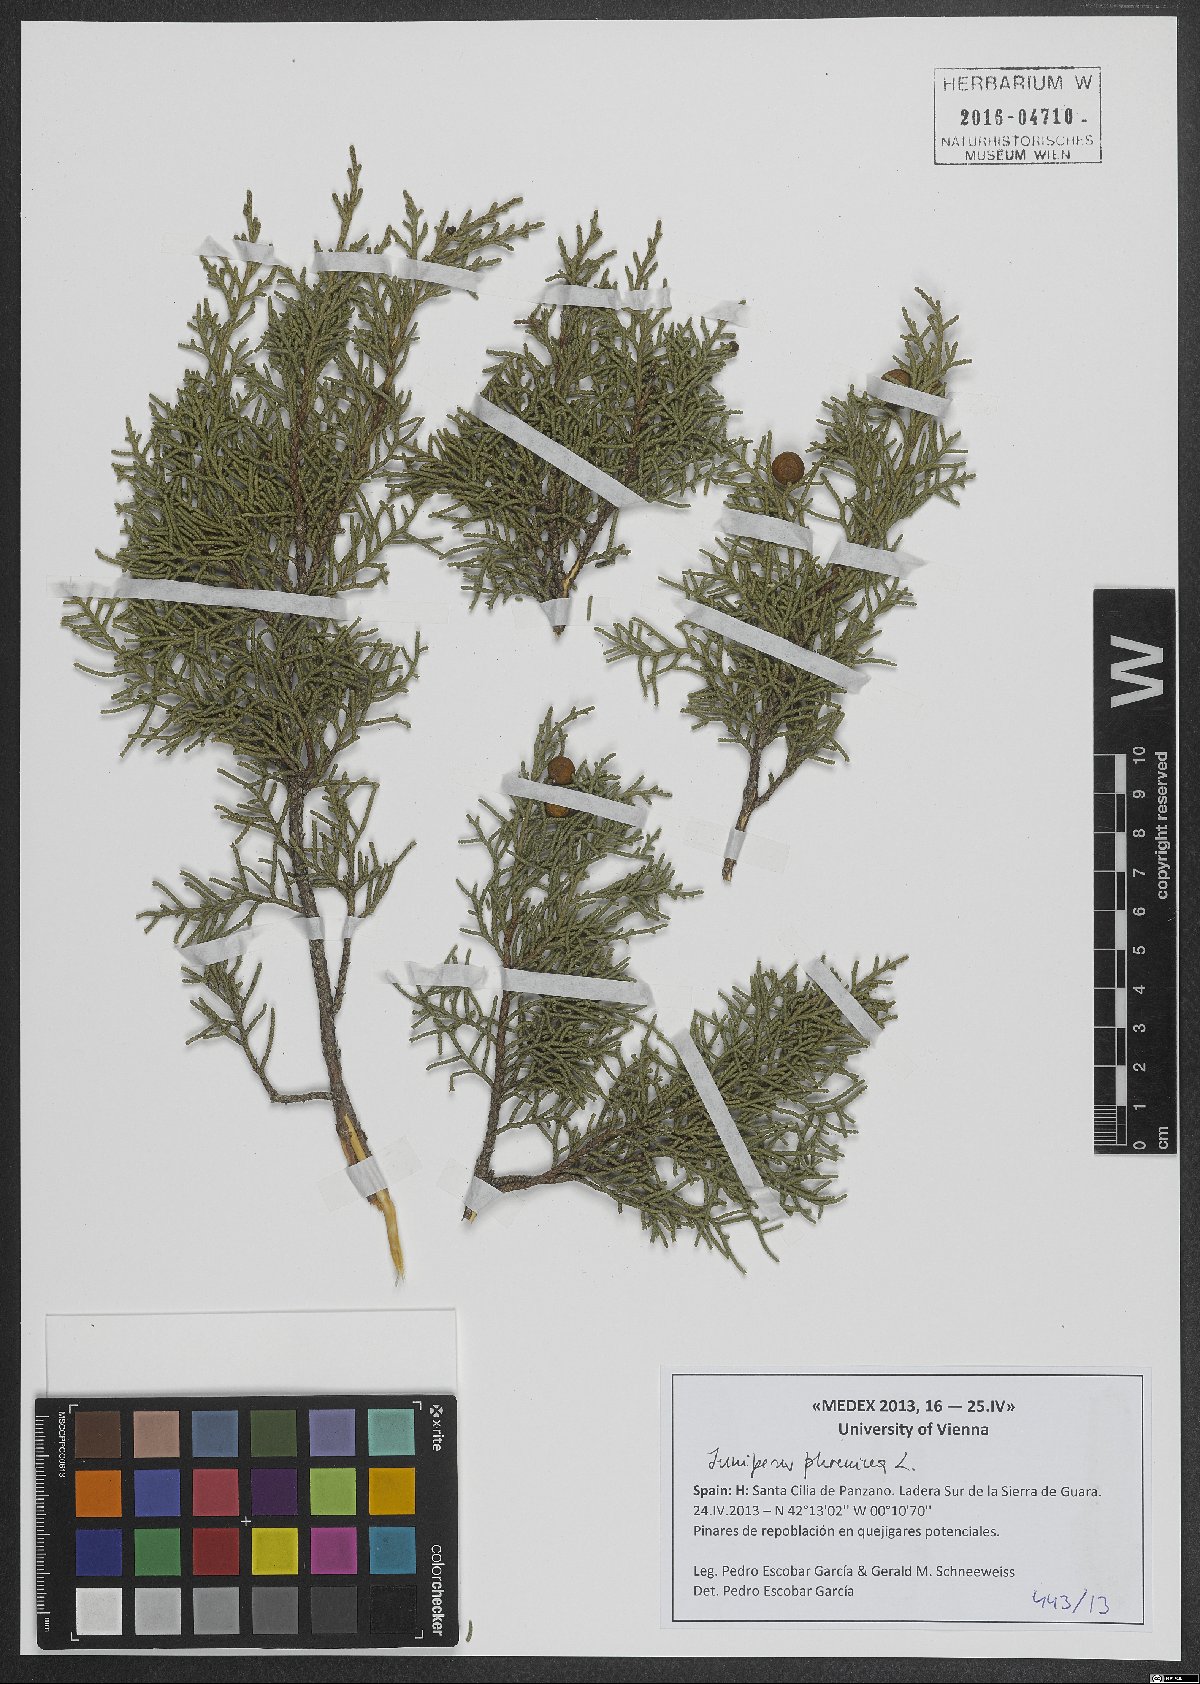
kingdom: Plantae
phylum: Tracheophyta
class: Pinopsida
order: Pinales
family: Cupressaceae
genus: Juniperus
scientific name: Juniperus phoenicea
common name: Phoenician juniper
